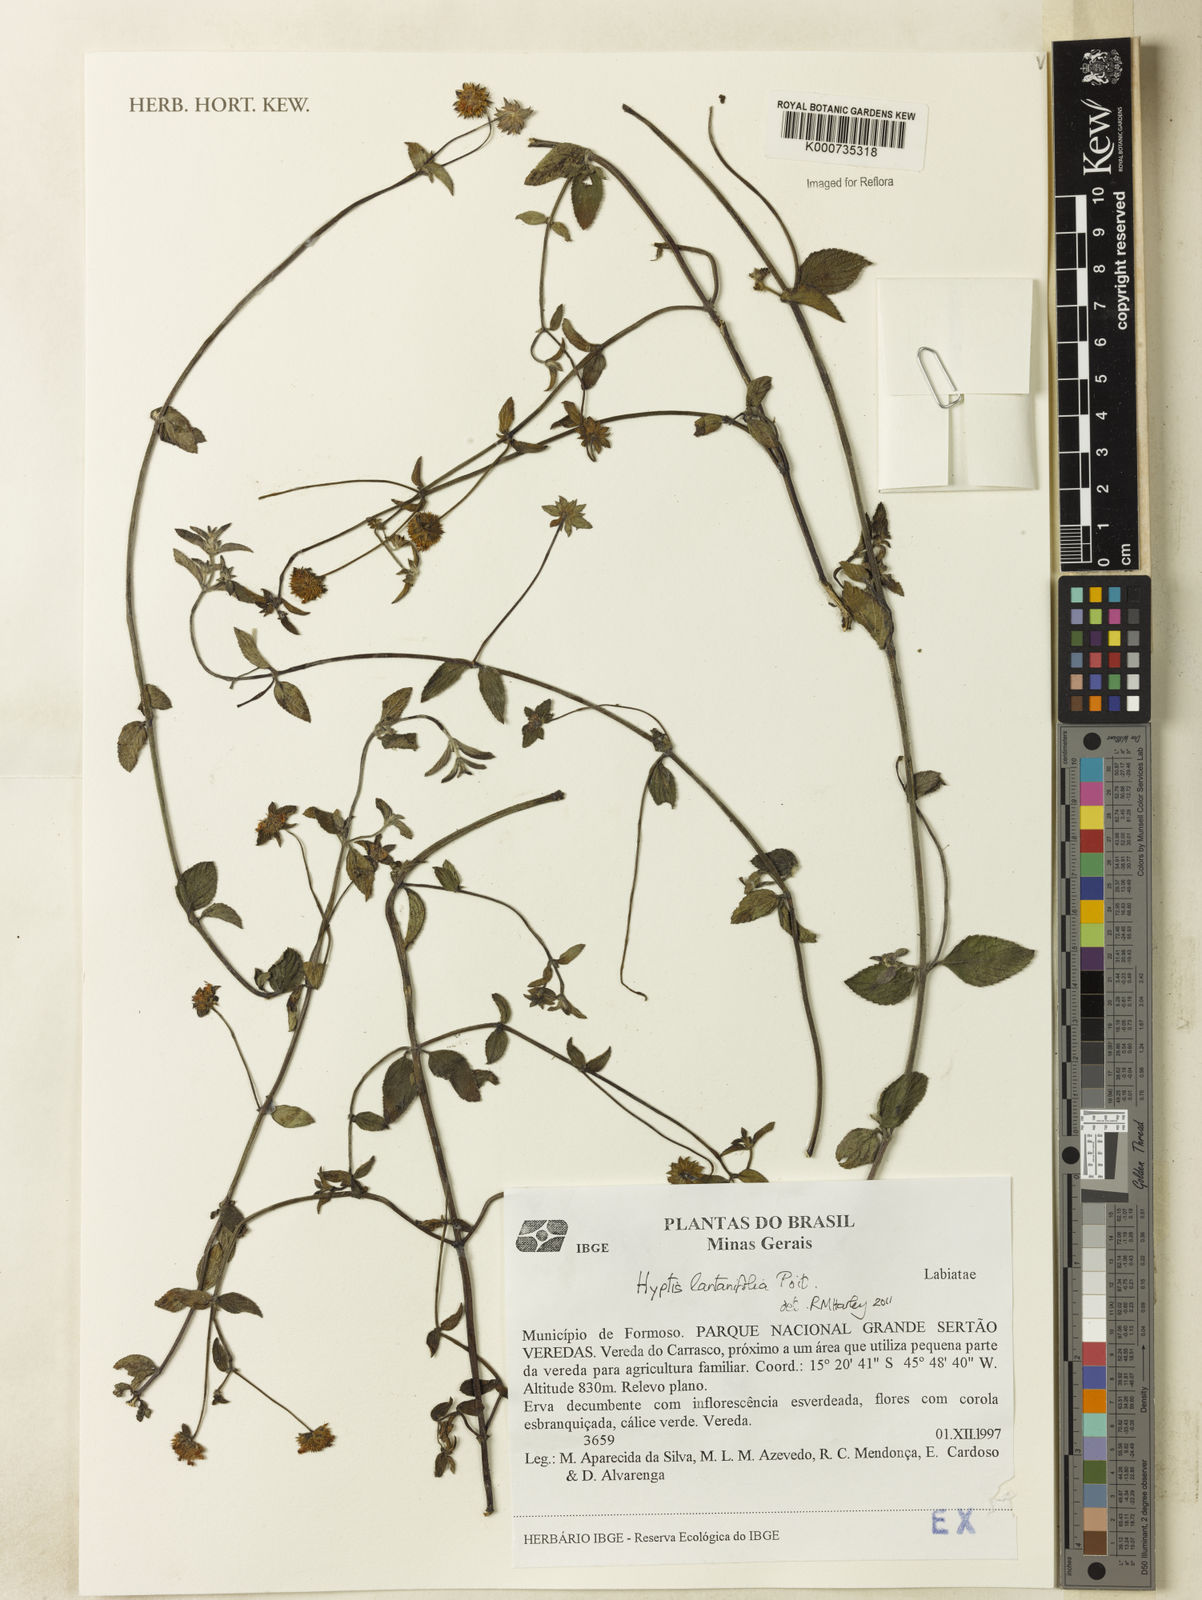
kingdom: Plantae
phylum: Tracheophyta
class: Magnoliopsida
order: Lamiales
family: Lamiaceae
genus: Hyptis
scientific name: Hyptis lantanifolia
